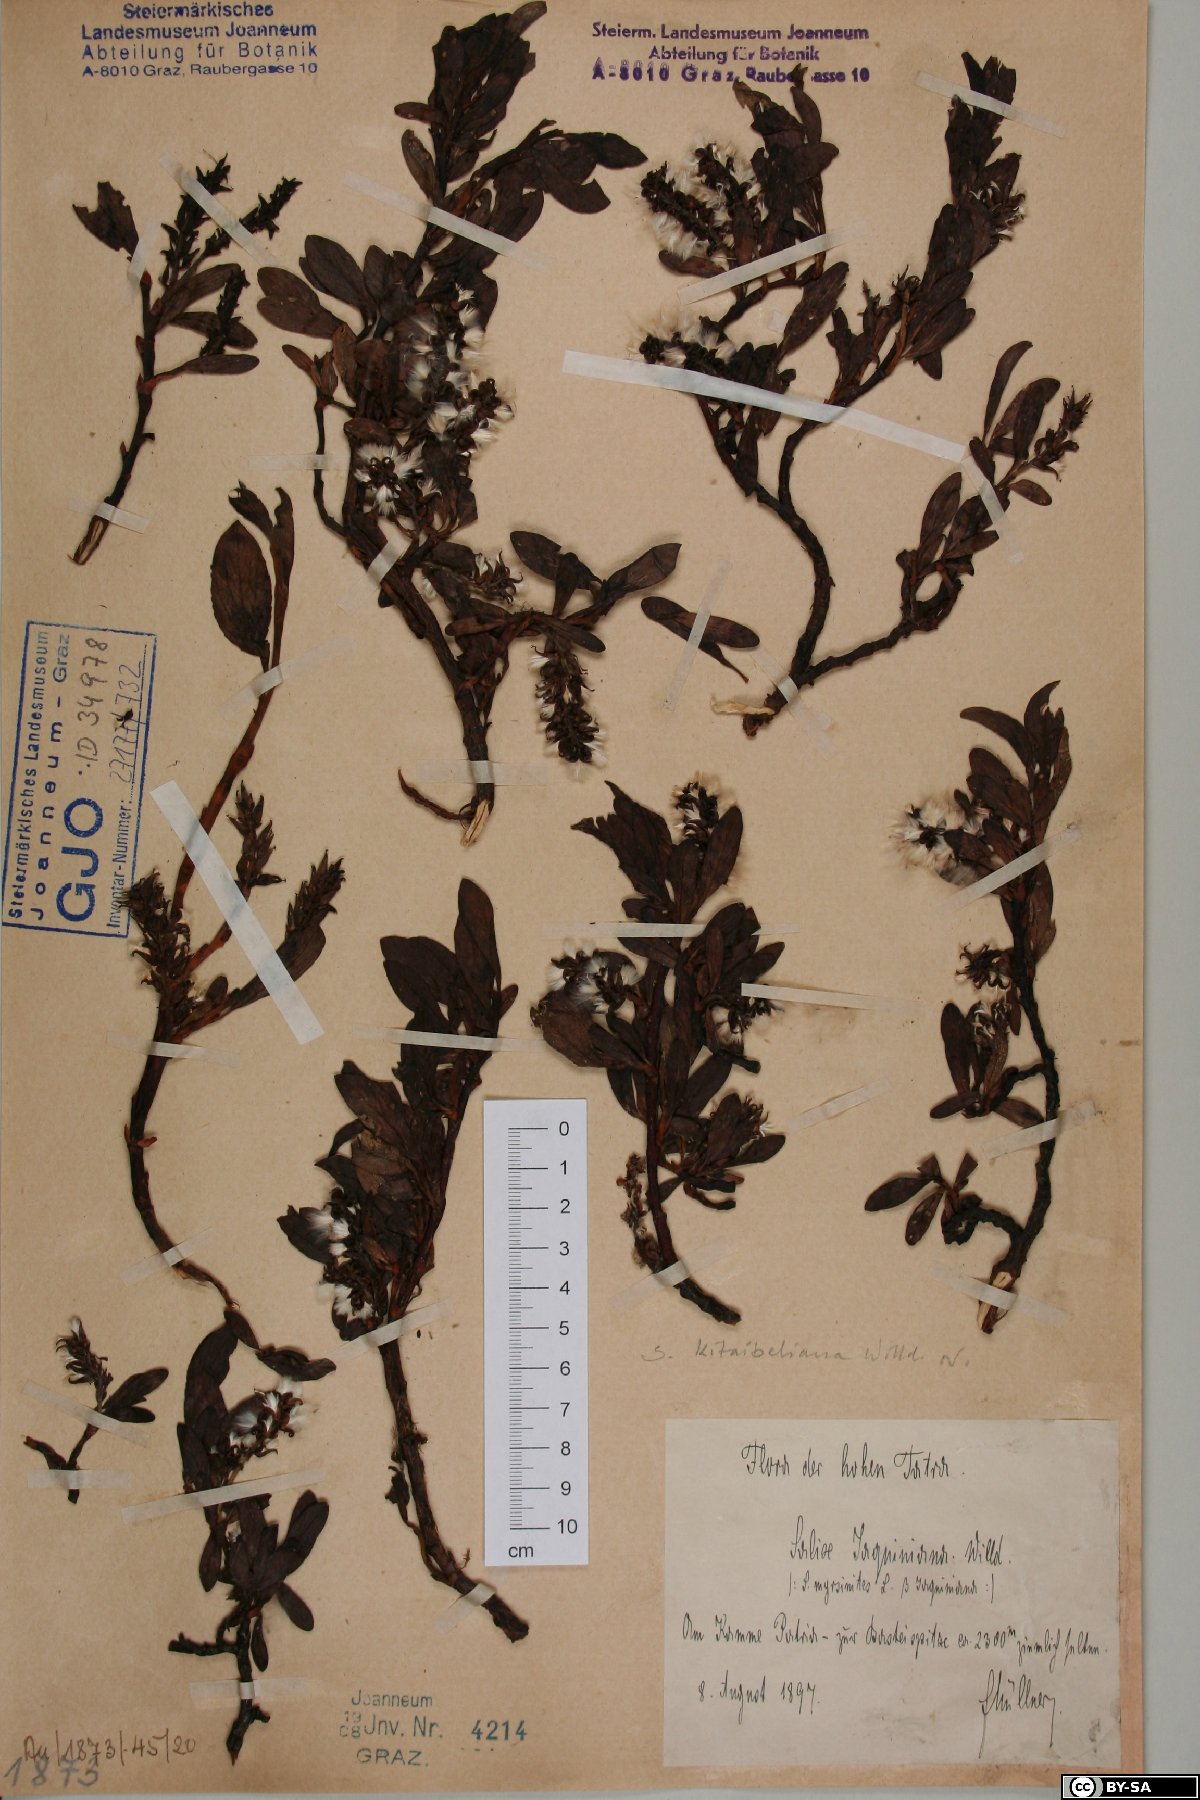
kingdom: Plantae
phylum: Tracheophyta
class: Magnoliopsida
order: Malpighiales
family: Salicaceae
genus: Salix
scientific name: Salix retusa
